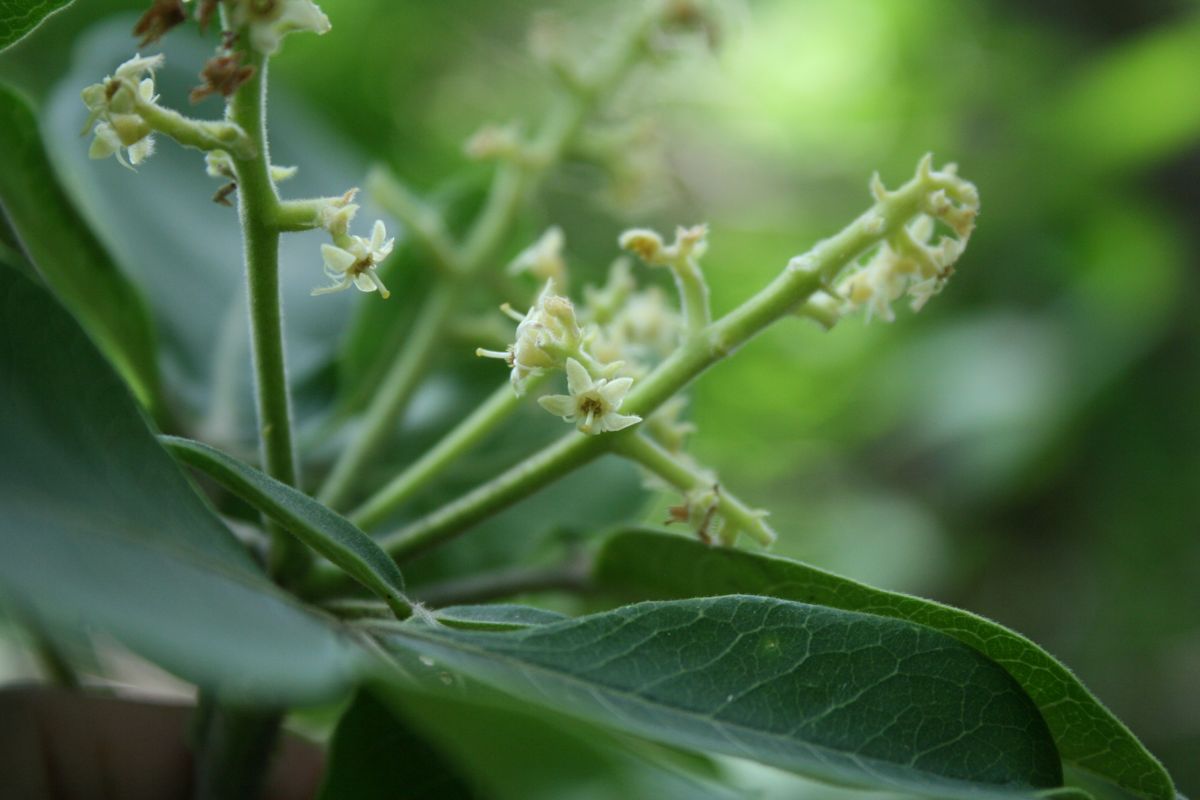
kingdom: Plantae
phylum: Tracheophyta
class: Magnoliopsida
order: Sapindales
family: Rutaceae
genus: Esenbeckia
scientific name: Esenbeckia berlandieri
